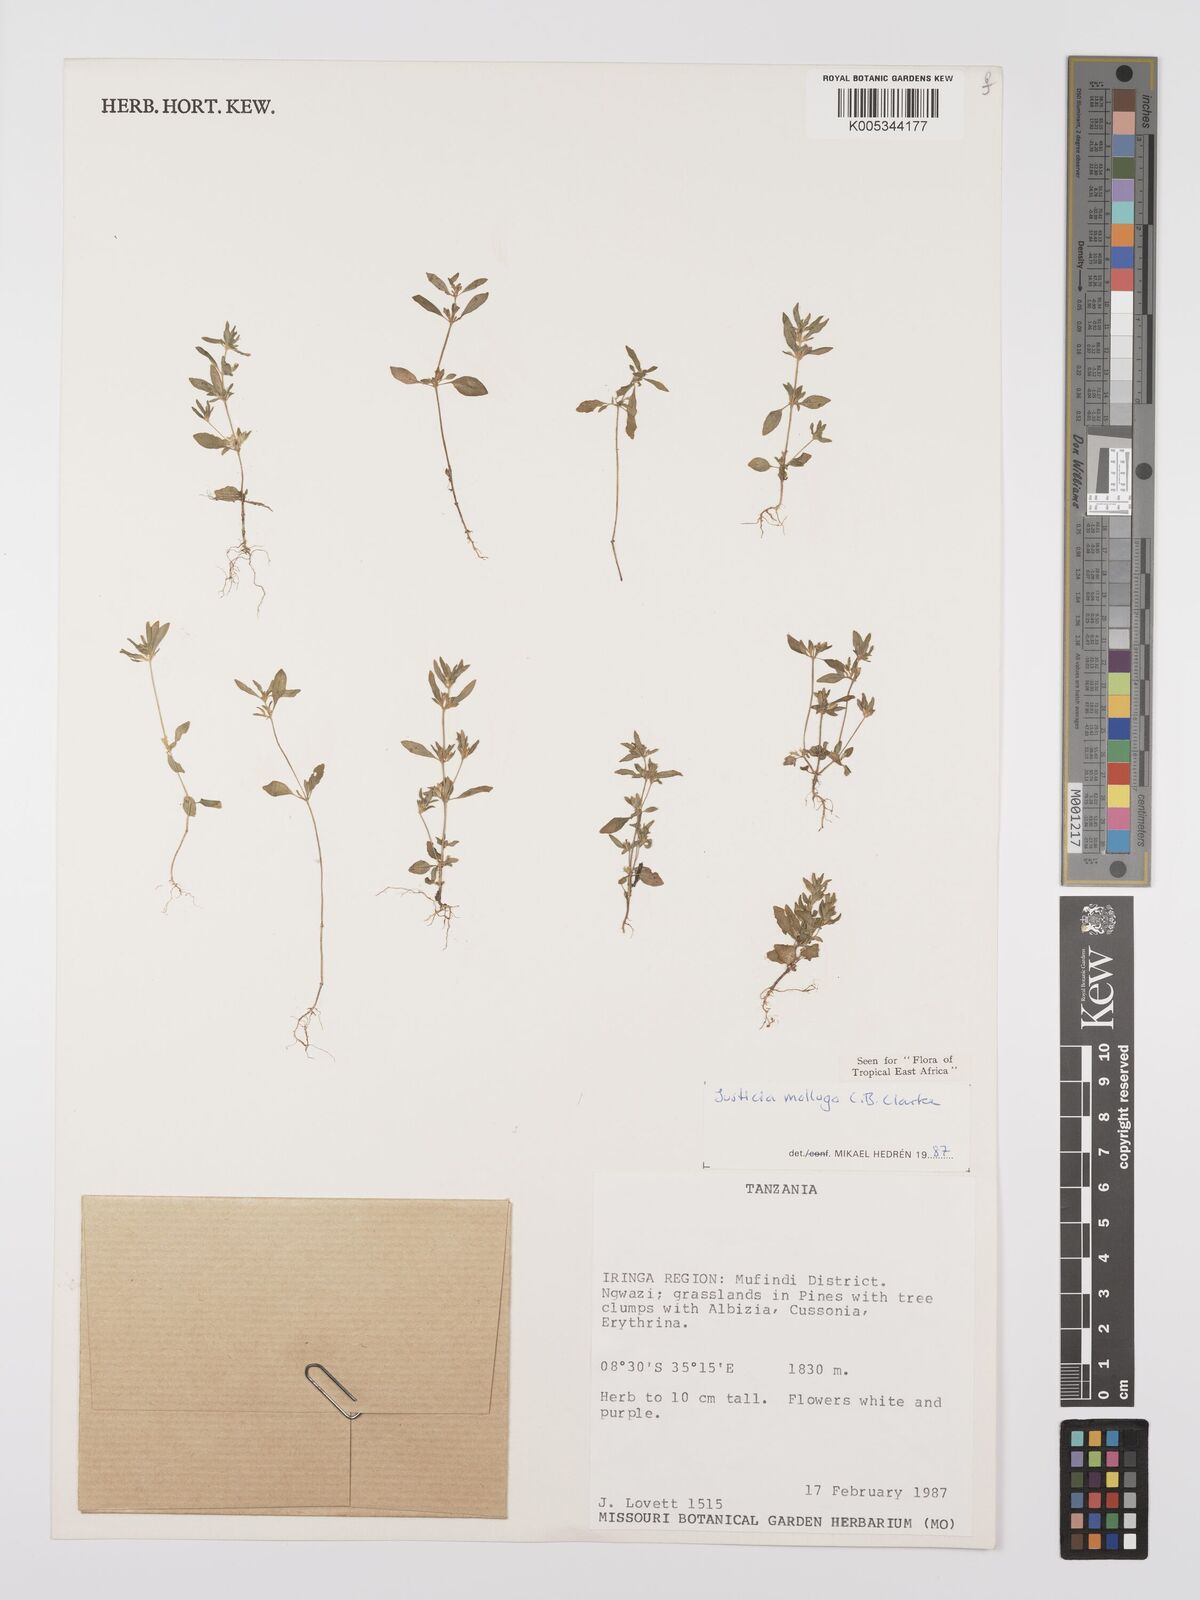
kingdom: Plantae
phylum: Tracheophyta
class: Magnoliopsida
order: Lamiales
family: Acanthaceae
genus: Justicia
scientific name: Justicia mollugo
